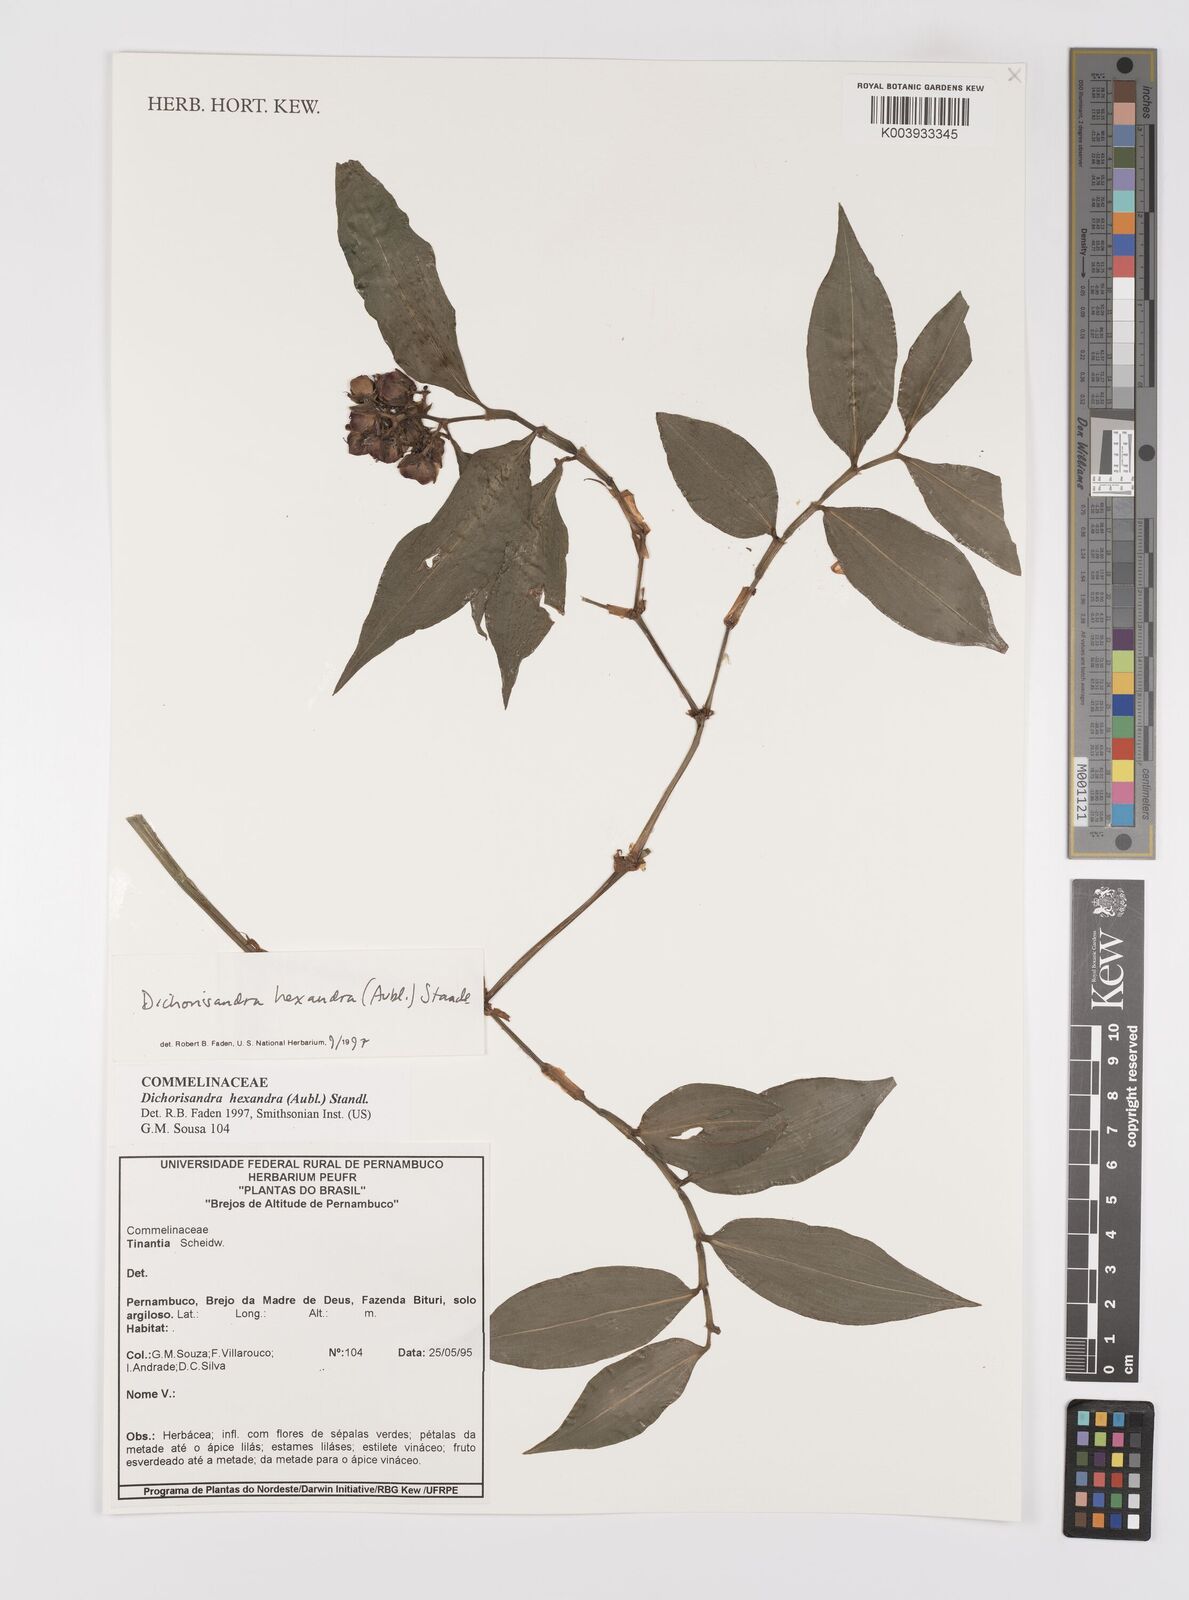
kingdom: Plantae
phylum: Tracheophyta
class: Liliopsida
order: Commelinales
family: Commelinaceae
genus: Dichorisandra
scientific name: Dichorisandra
